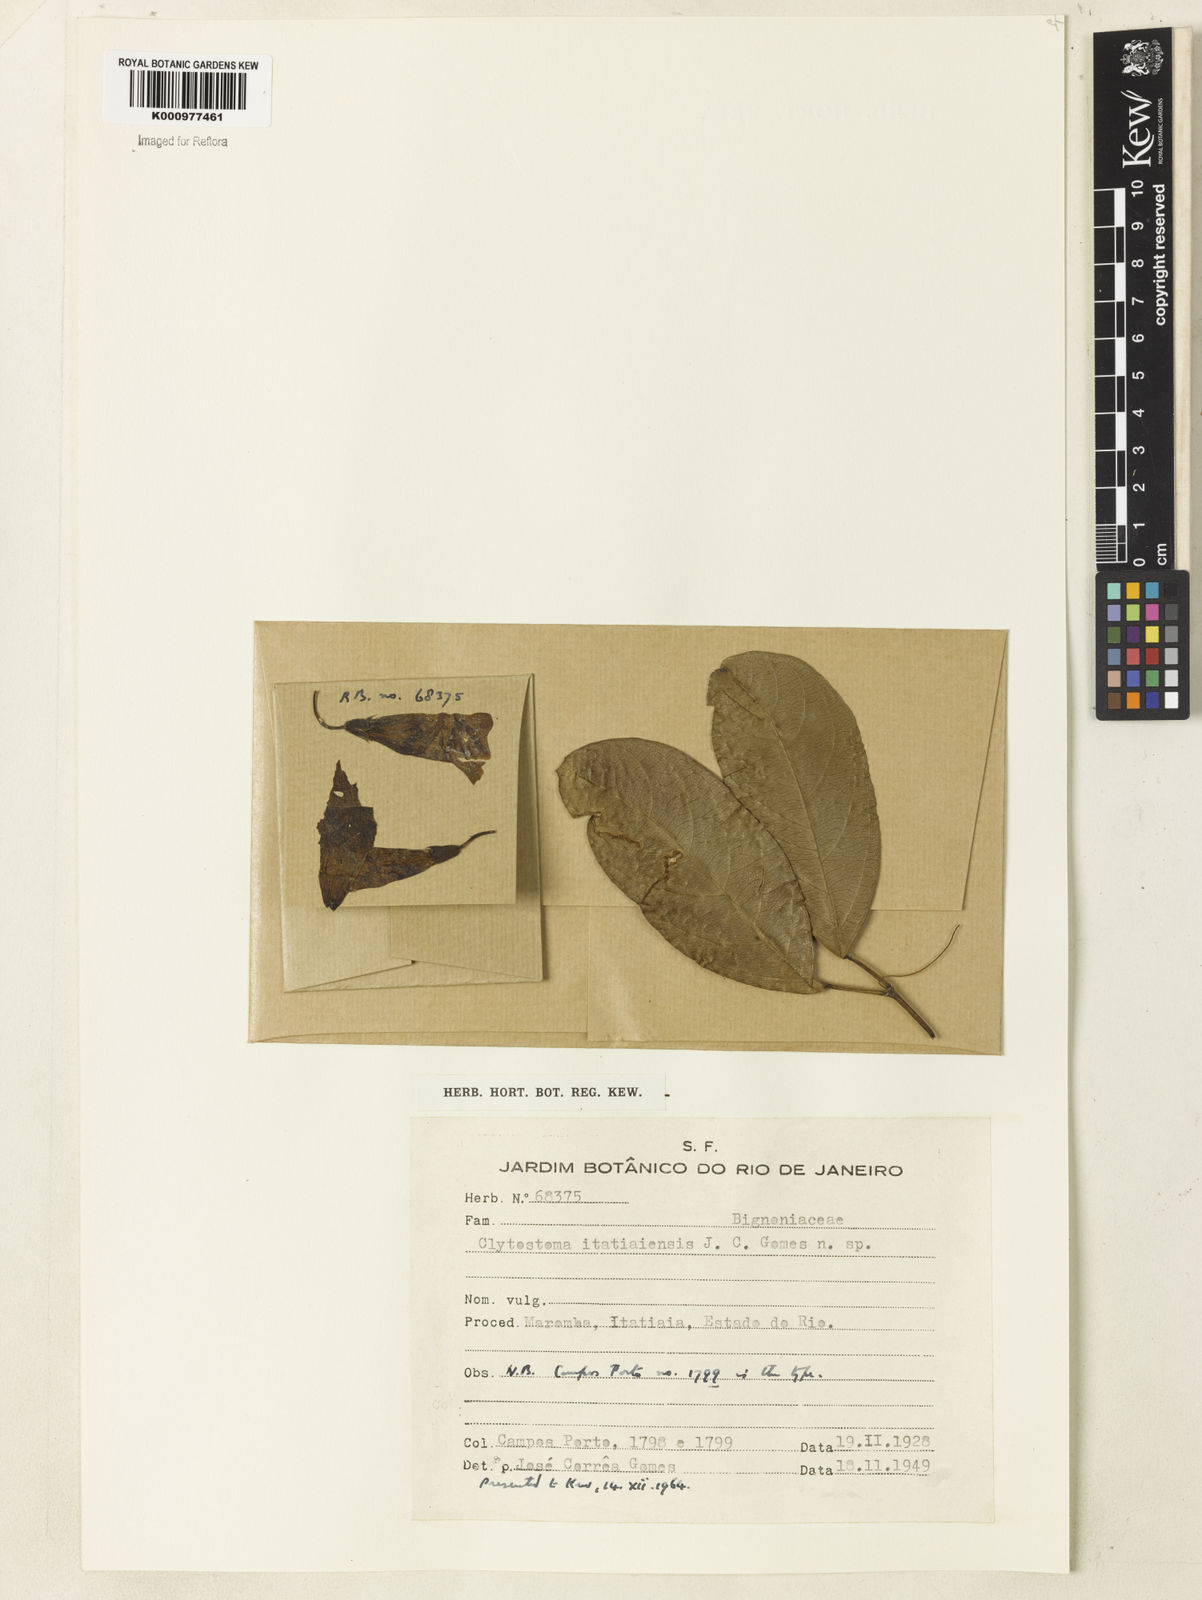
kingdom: Plantae
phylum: Tracheophyta
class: Magnoliopsida
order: Lamiales
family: Bignoniaceae
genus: Bignonia
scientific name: Bignonia
